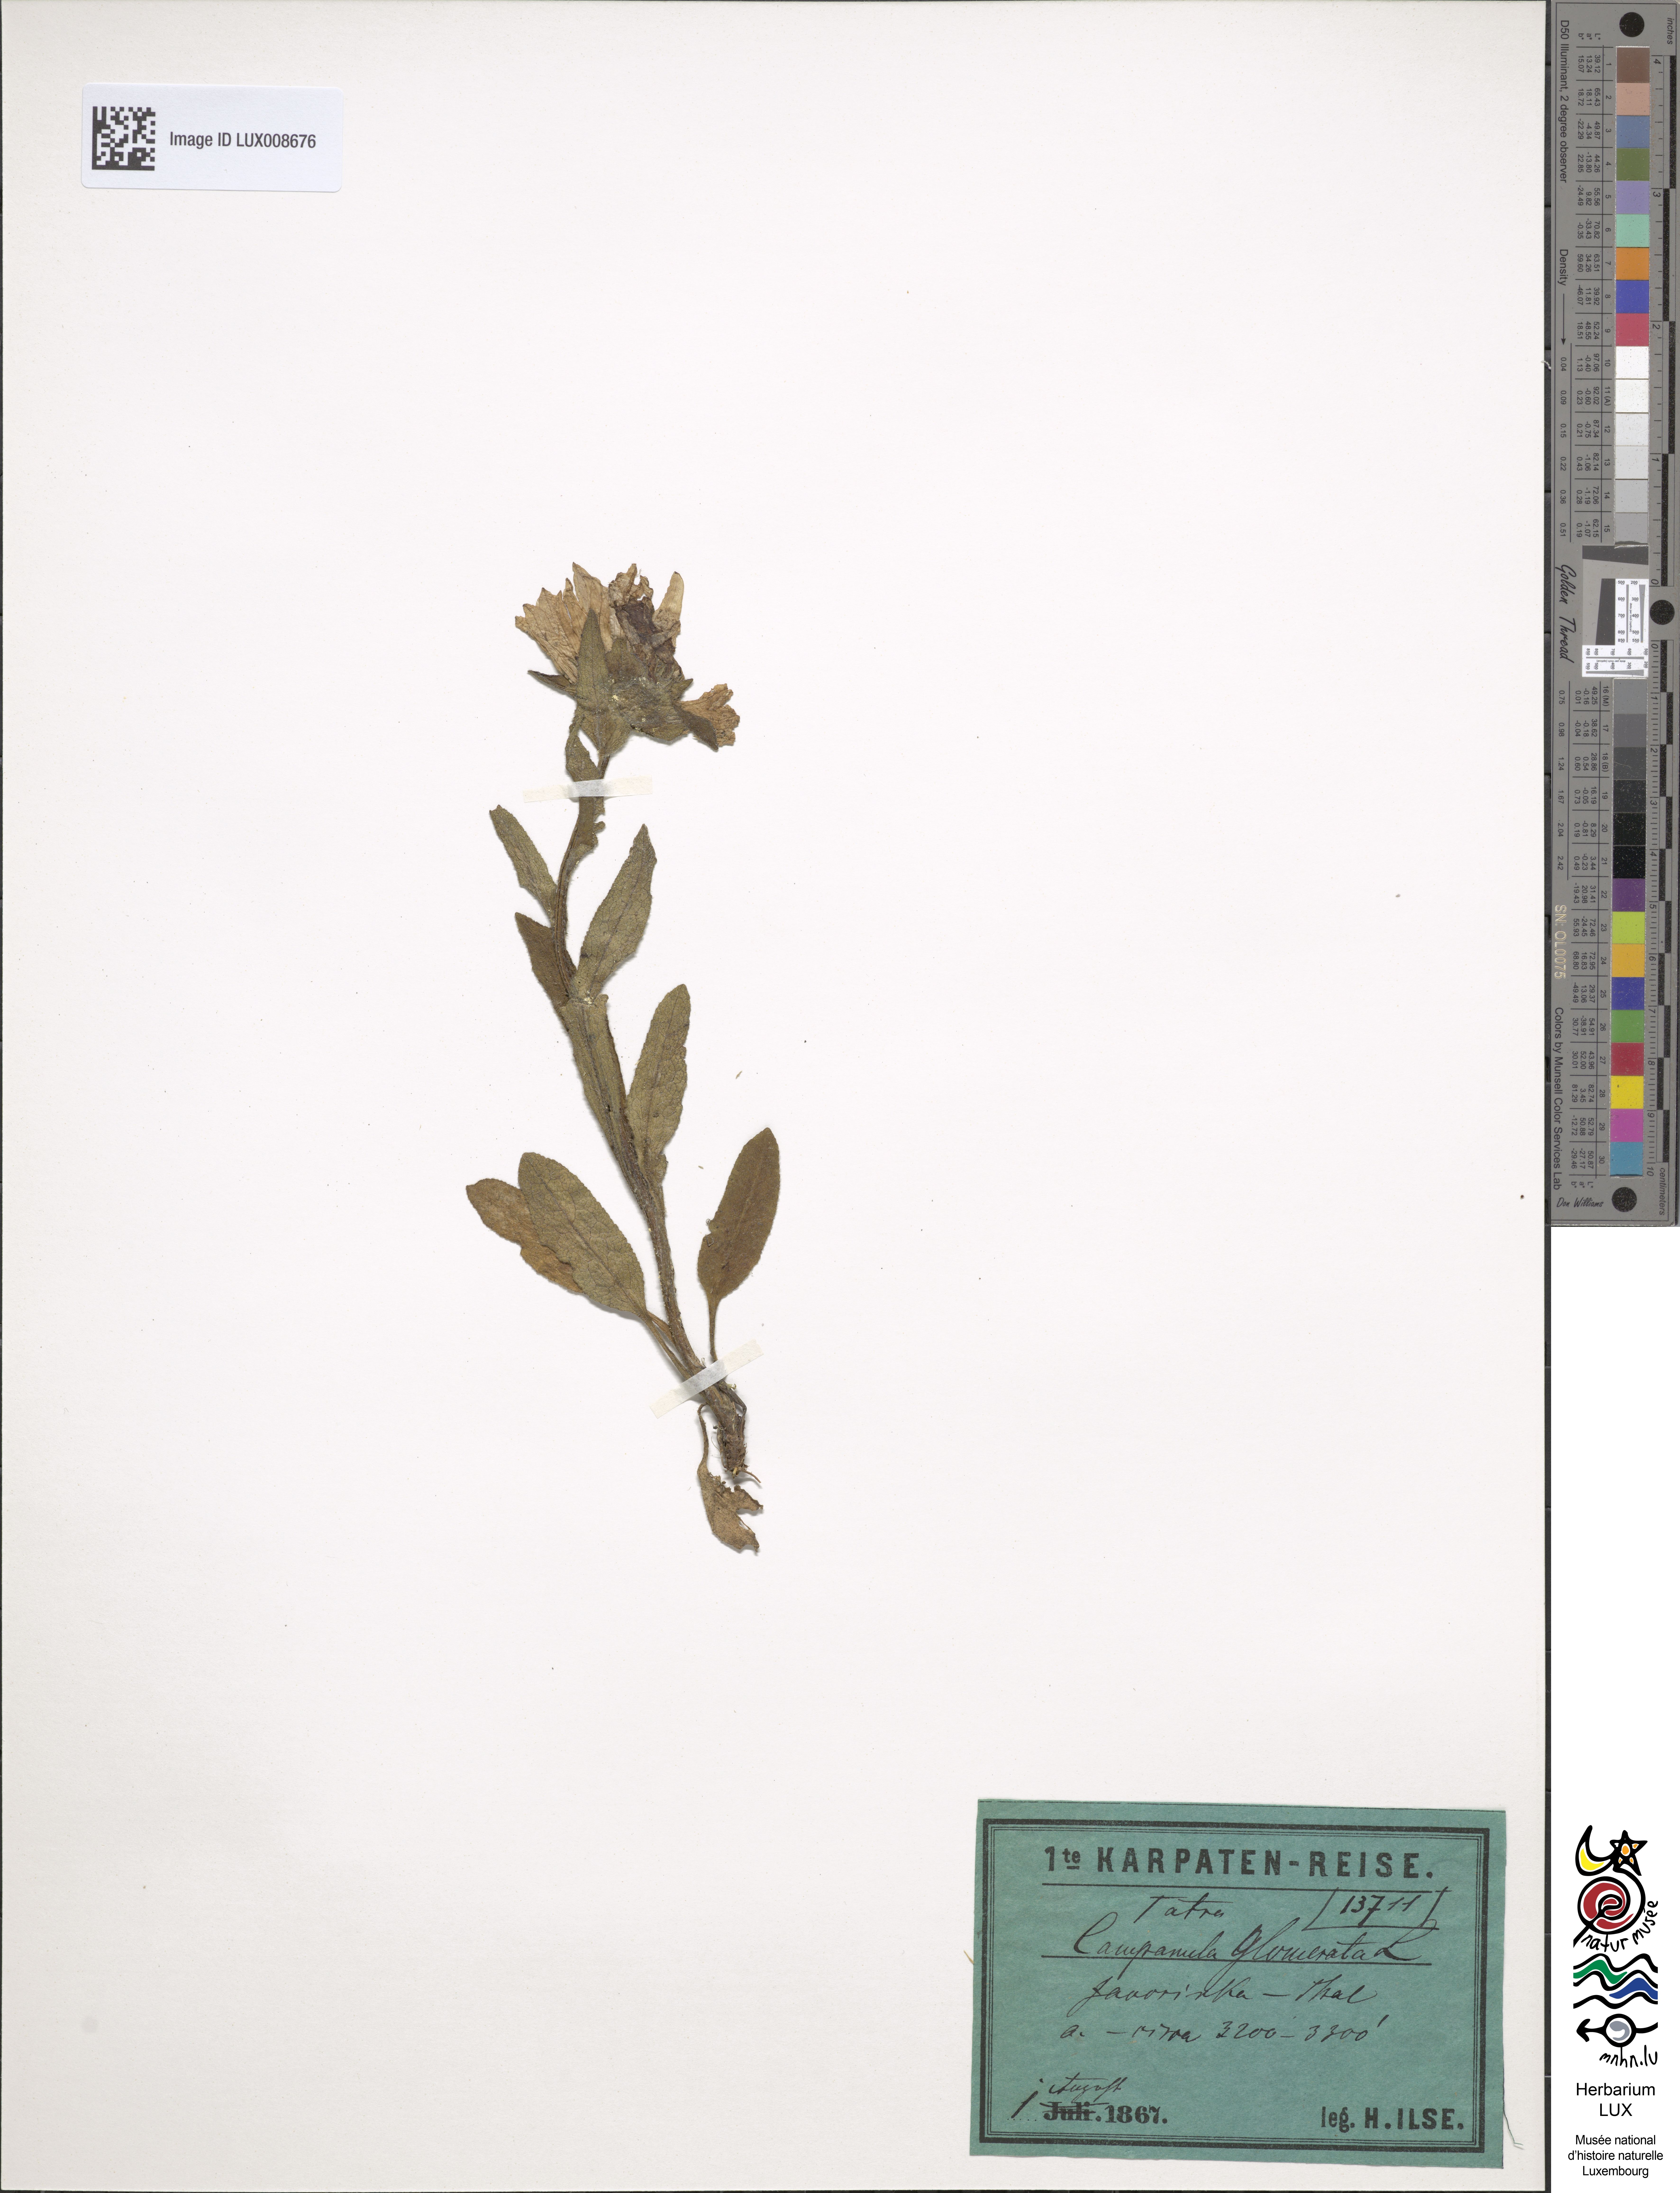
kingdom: Plantae
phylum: Tracheophyta
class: Magnoliopsida
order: Asterales
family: Campanulaceae
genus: Campanula
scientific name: Campanula glomerata
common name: Clustered bellflower
